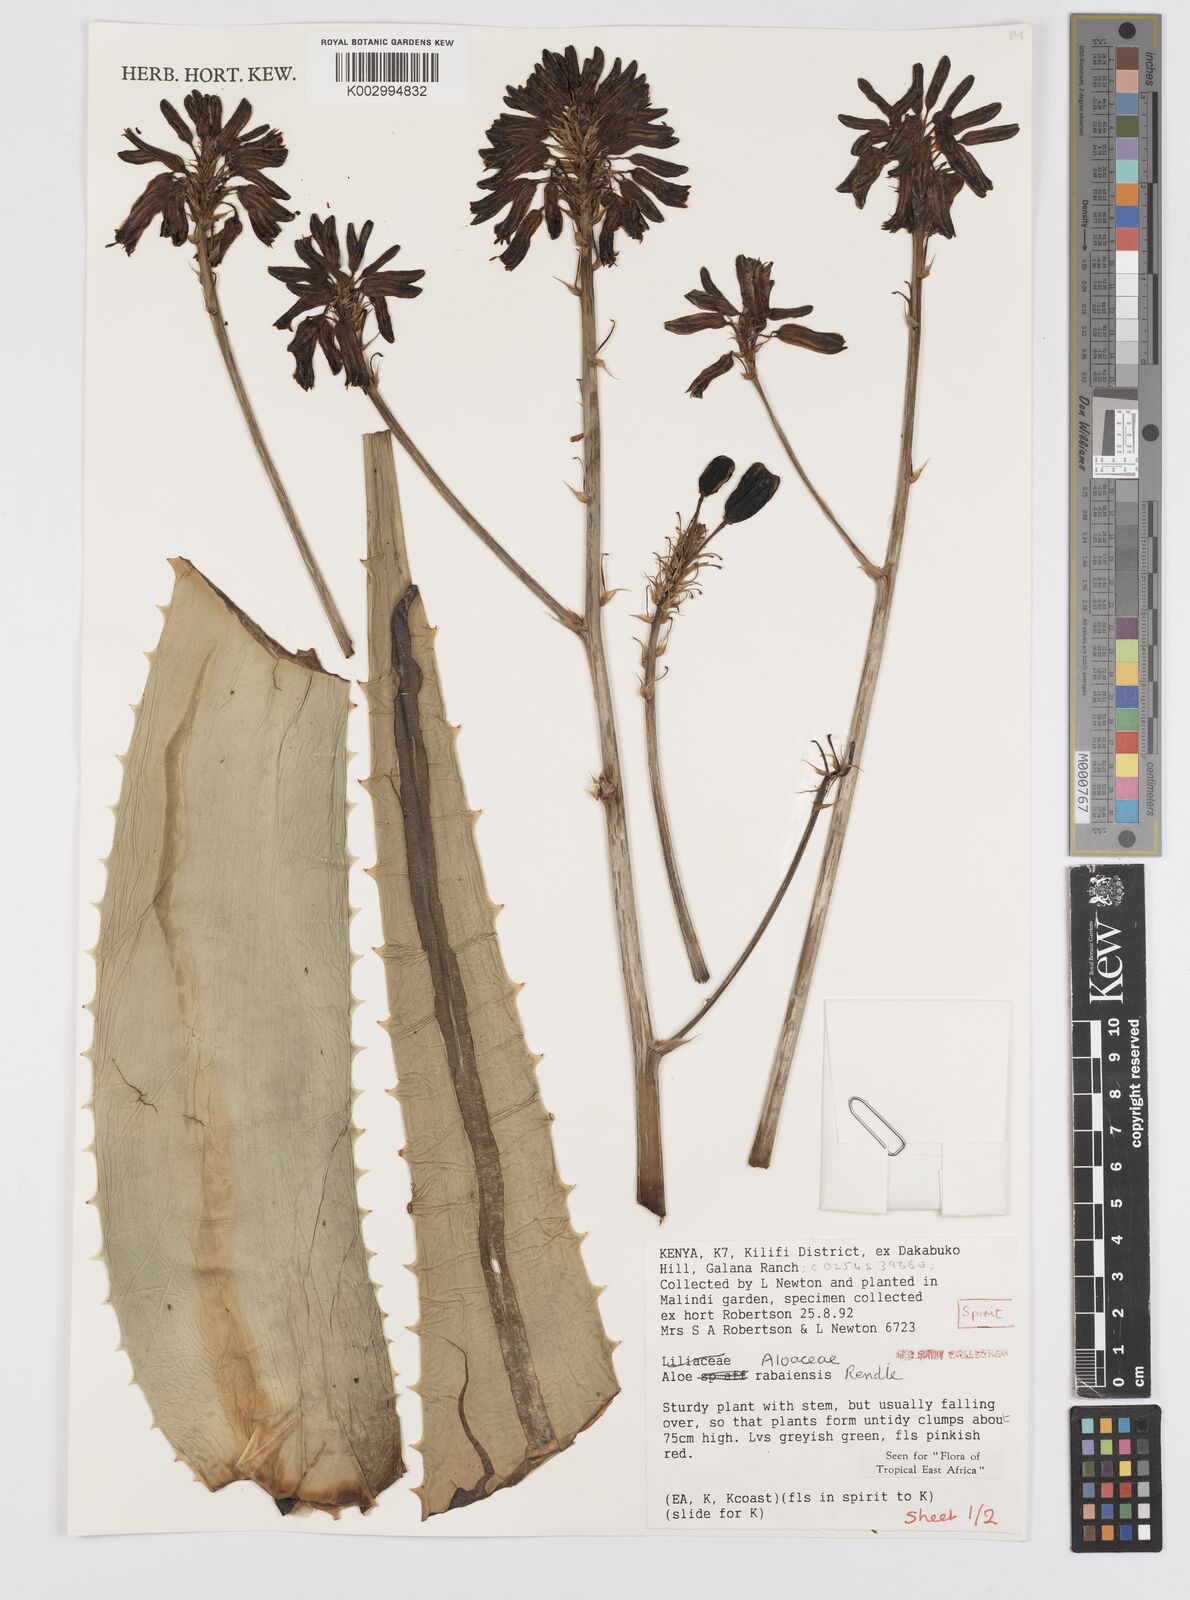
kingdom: Plantae
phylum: Tracheophyta
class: Liliopsida
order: Asparagales
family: Asphodelaceae
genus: Aloe
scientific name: Aloe rabaiensis
